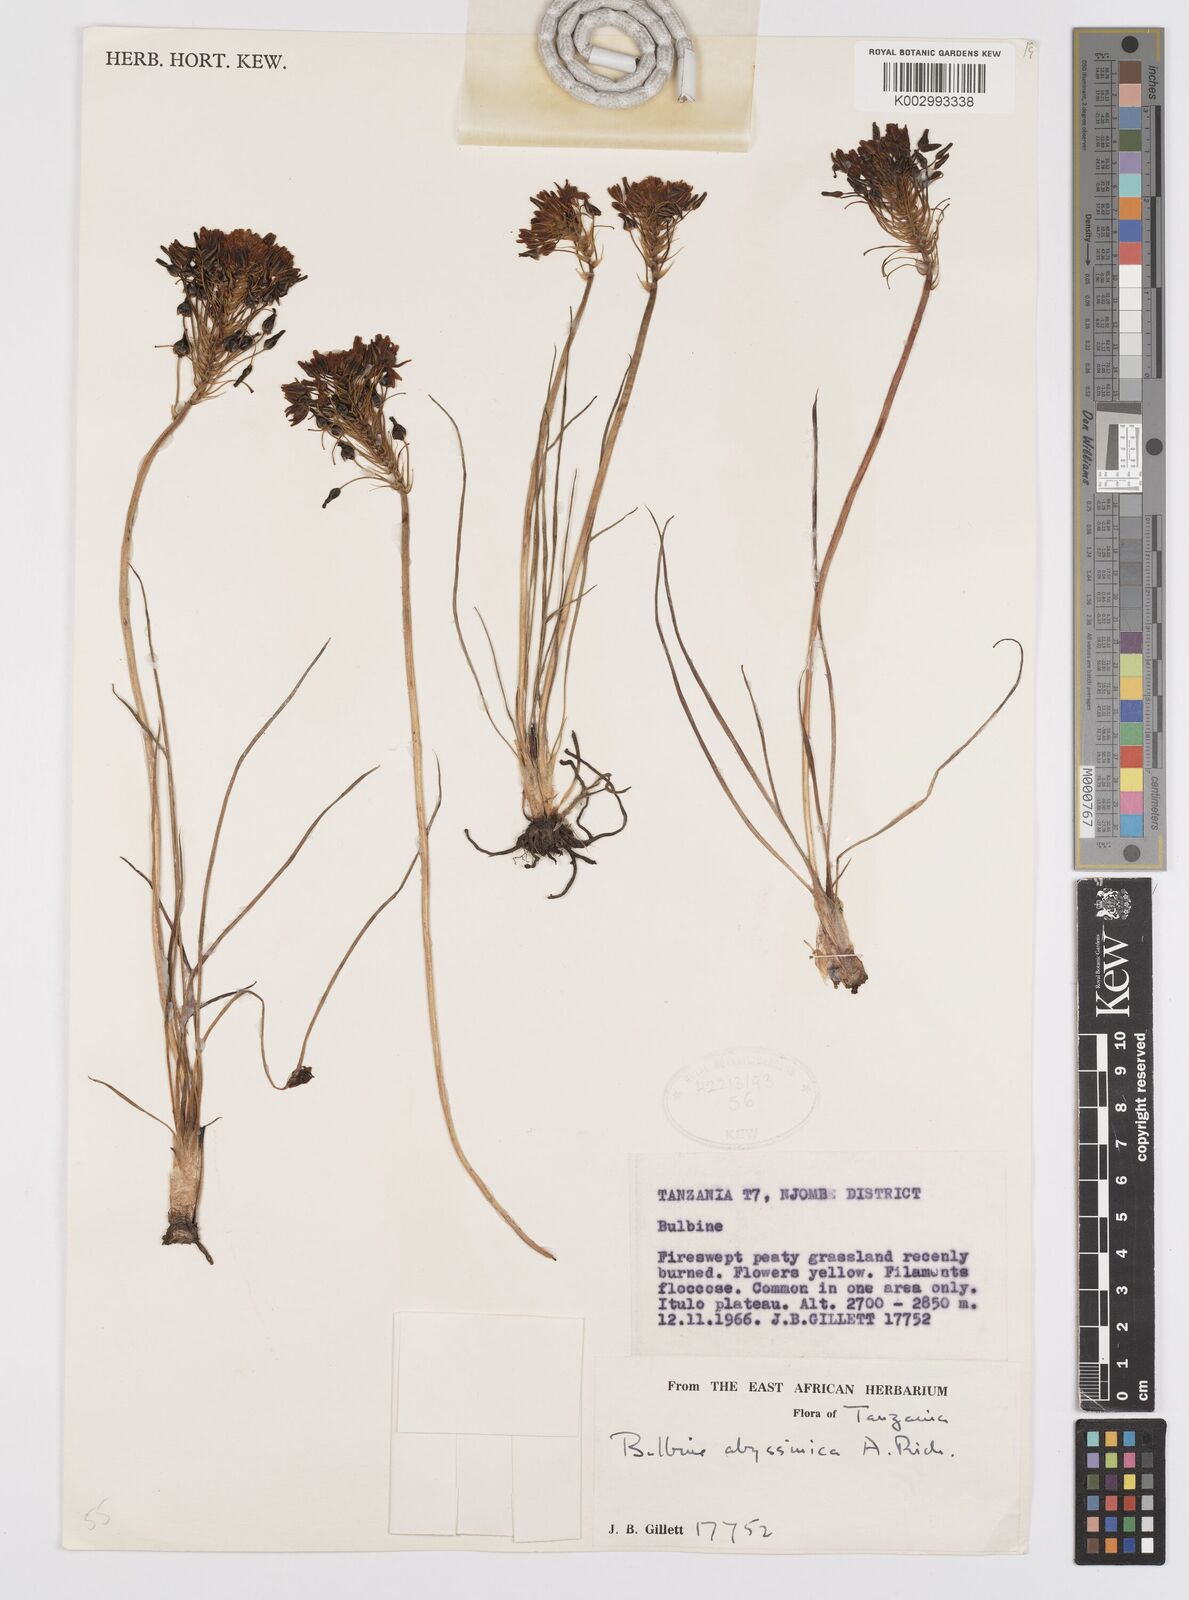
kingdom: Plantae
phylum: Tracheophyta
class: Liliopsida
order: Asparagales
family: Asphodelaceae
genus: Bulbine
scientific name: Bulbine abyssinica
